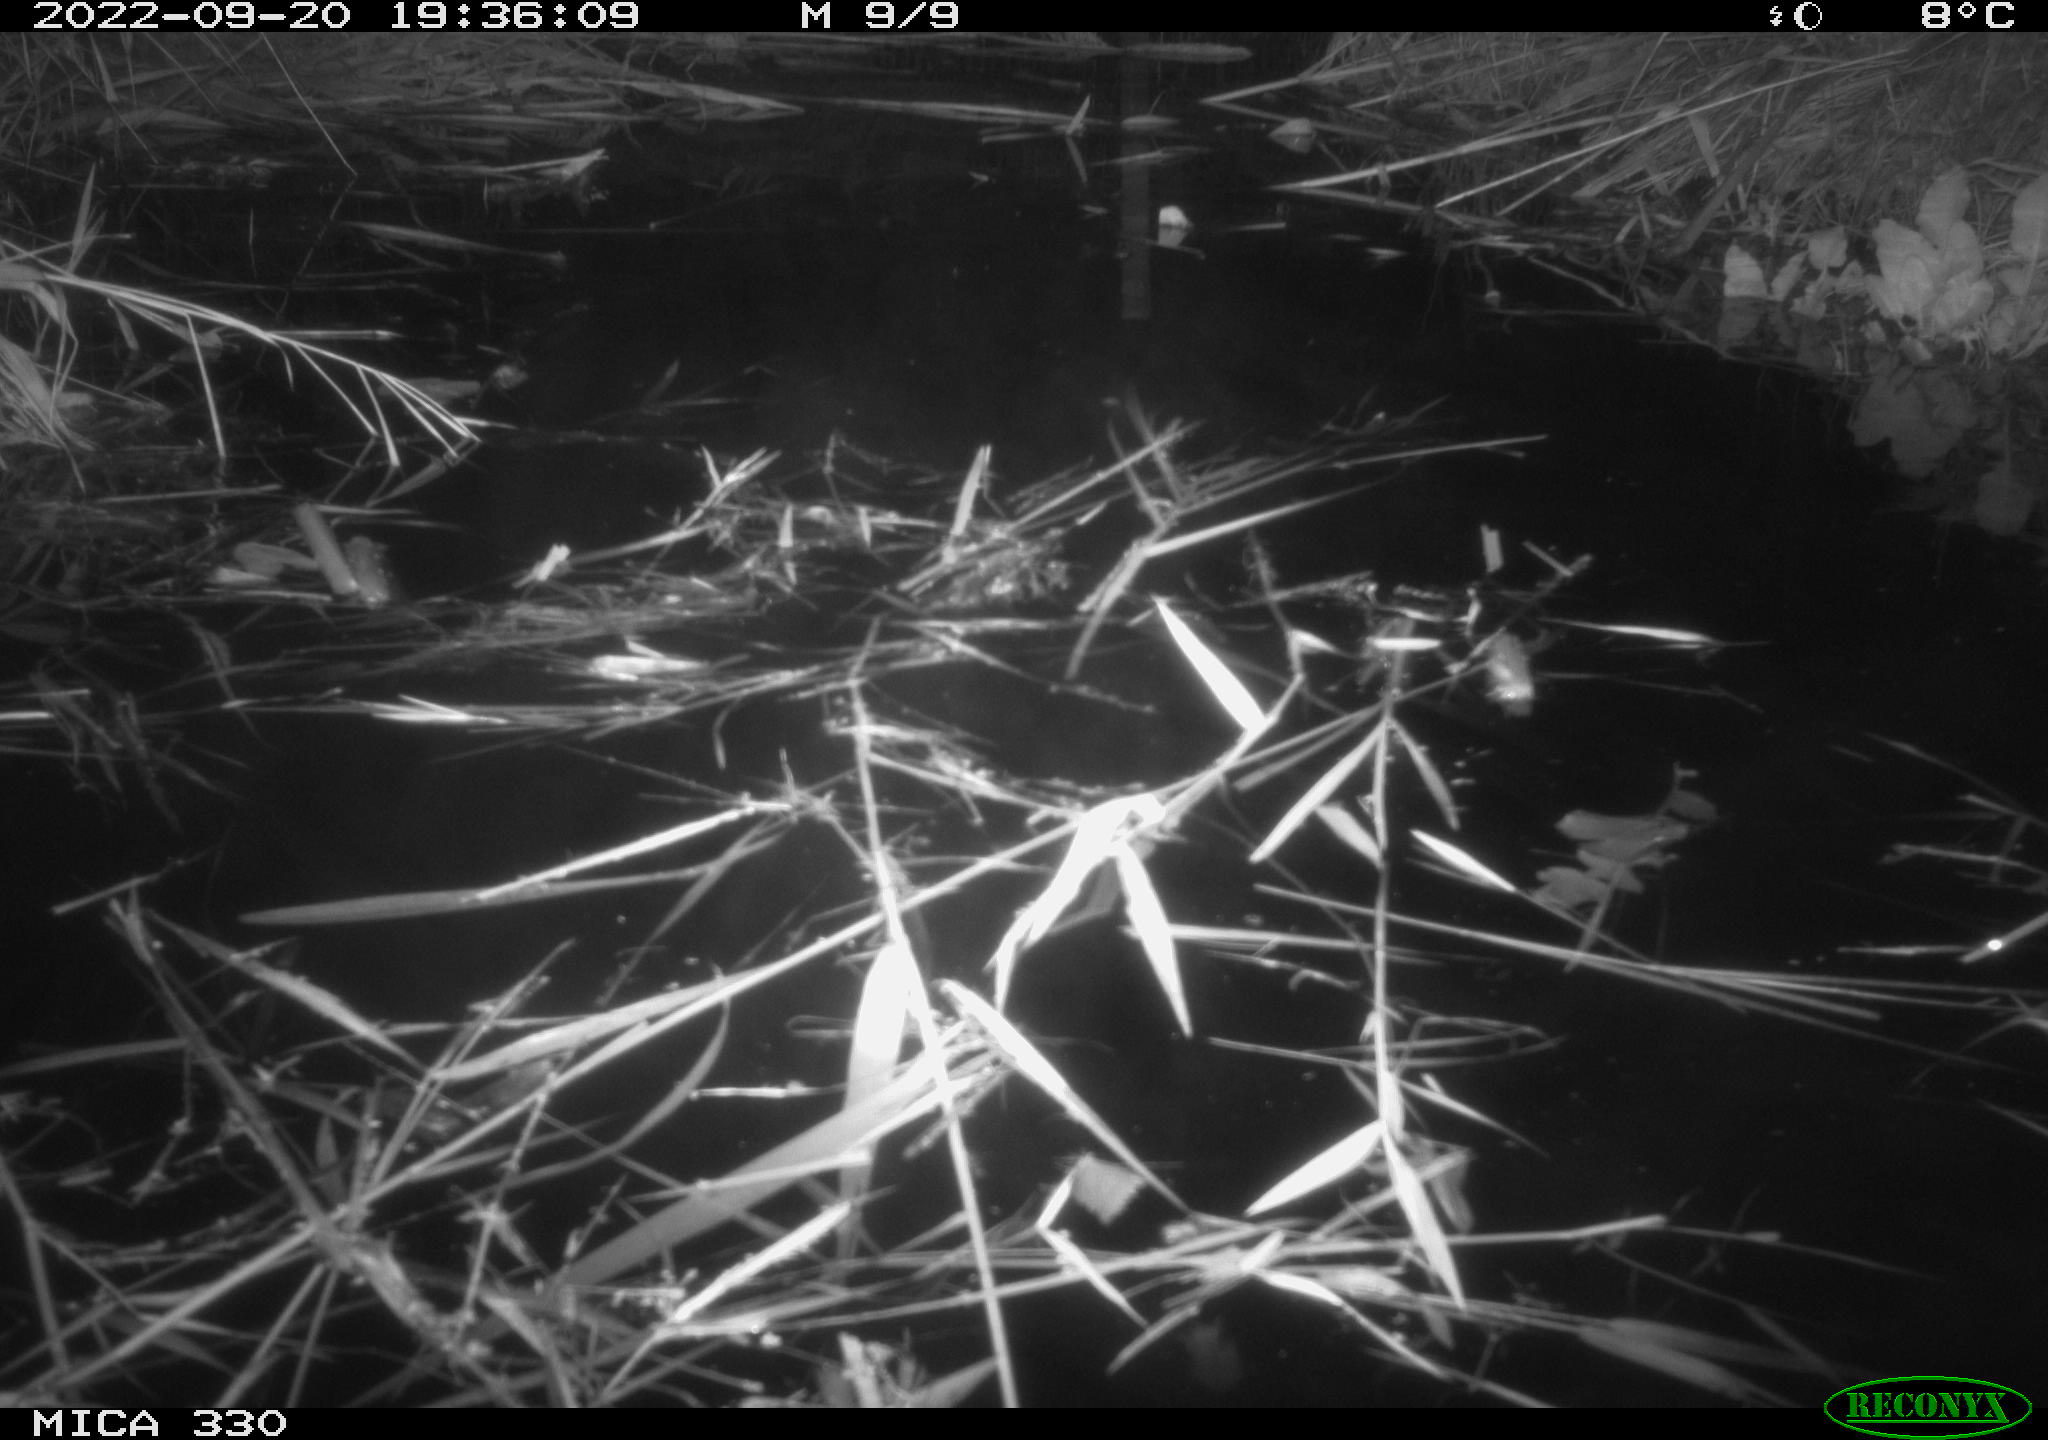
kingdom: Animalia
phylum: Chordata
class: Aves
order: Anseriformes
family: Anatidae
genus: Anas
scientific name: Anas platyrhynchos
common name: Mallard
